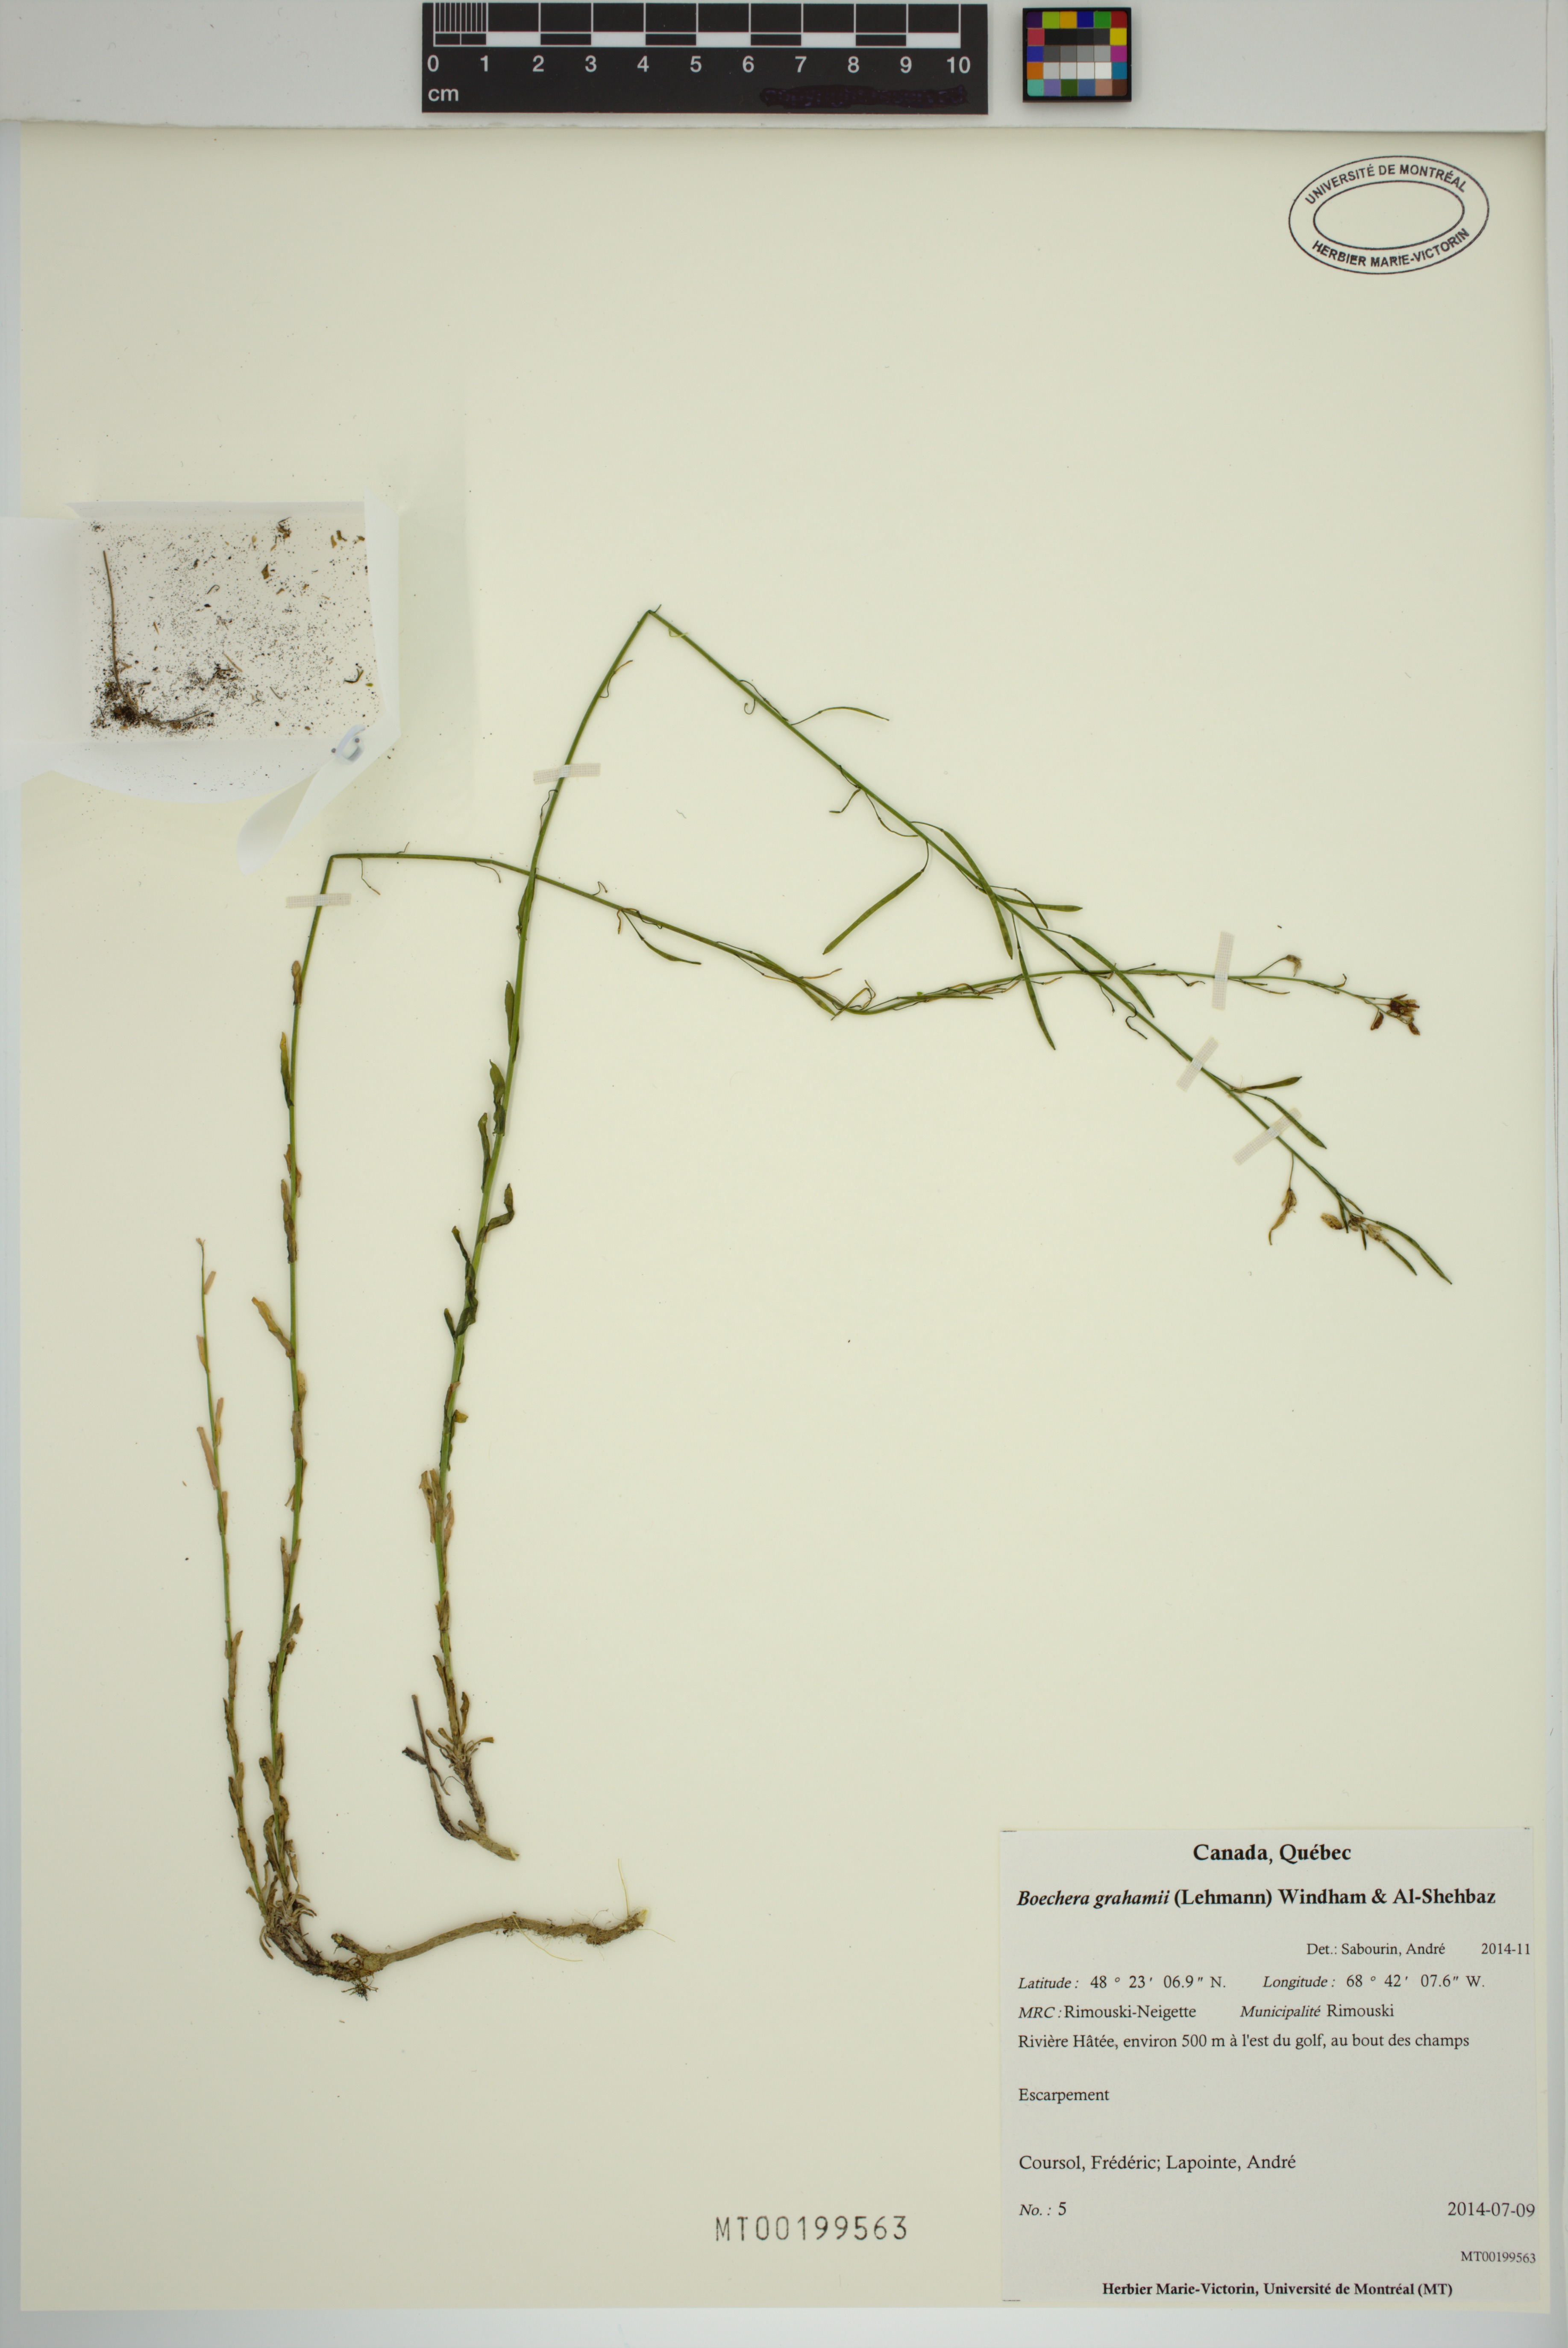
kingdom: Plantae
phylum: Tracheophyta
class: Magnoliopsida
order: Brassicales
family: Brassicaceae
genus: Boechera
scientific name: Boechera
